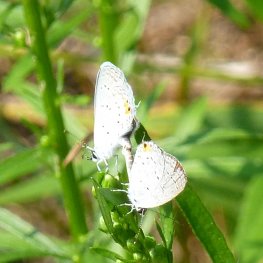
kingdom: Animalia
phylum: Arthropoda
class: Insecta
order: Lepidoptera
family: Lycaenidae
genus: Elkalyce
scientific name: Elkalyce comyntas
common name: Eastern Tailed-Blue
